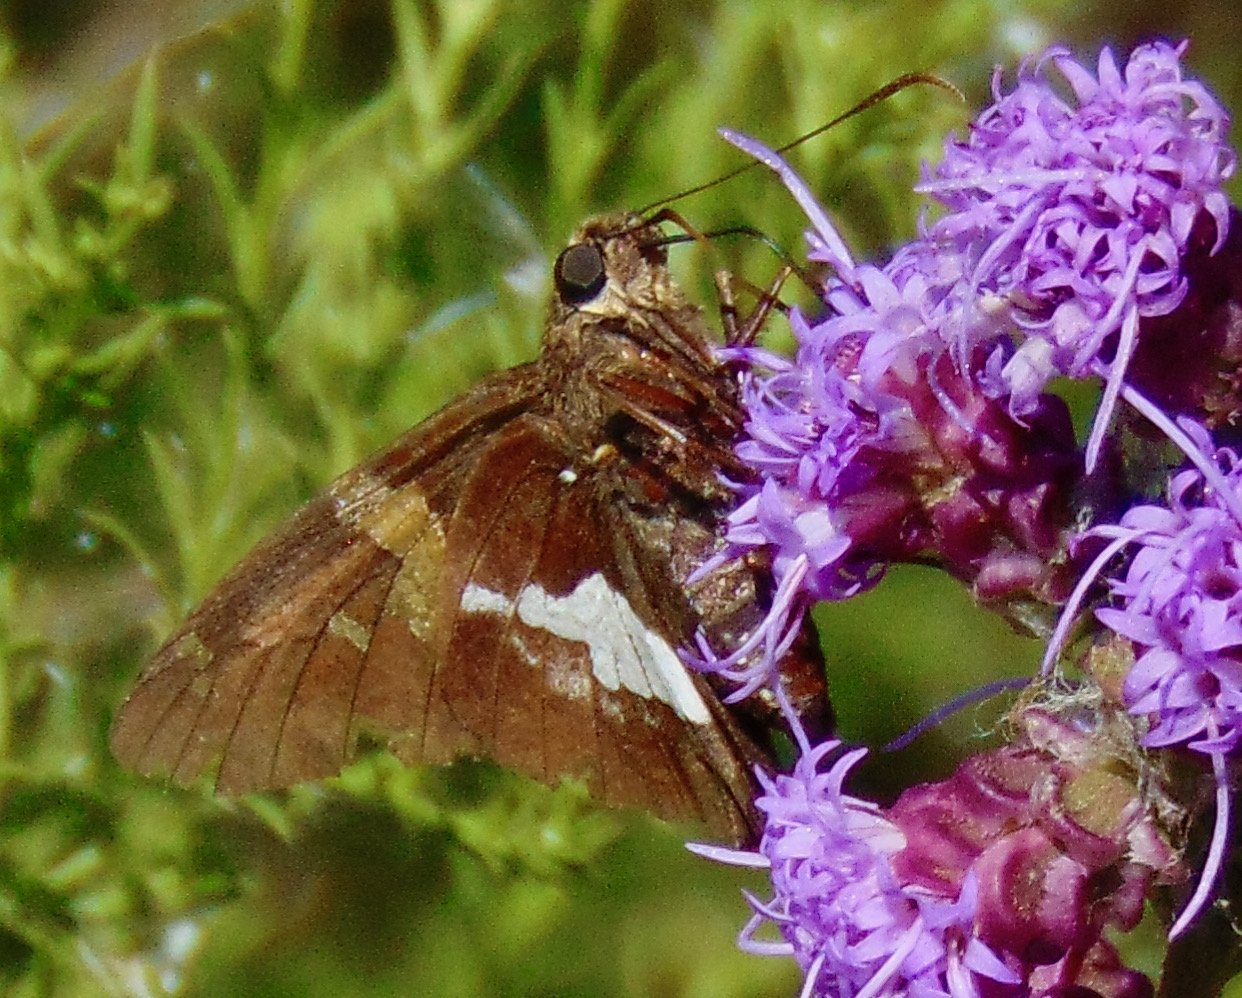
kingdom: Animalia
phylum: Arthropoda
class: Insecta
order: Lepidoptera
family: Hesperiidae
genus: Epargyreus
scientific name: Epargyreus clarus
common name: Silver-spotted Skipper
